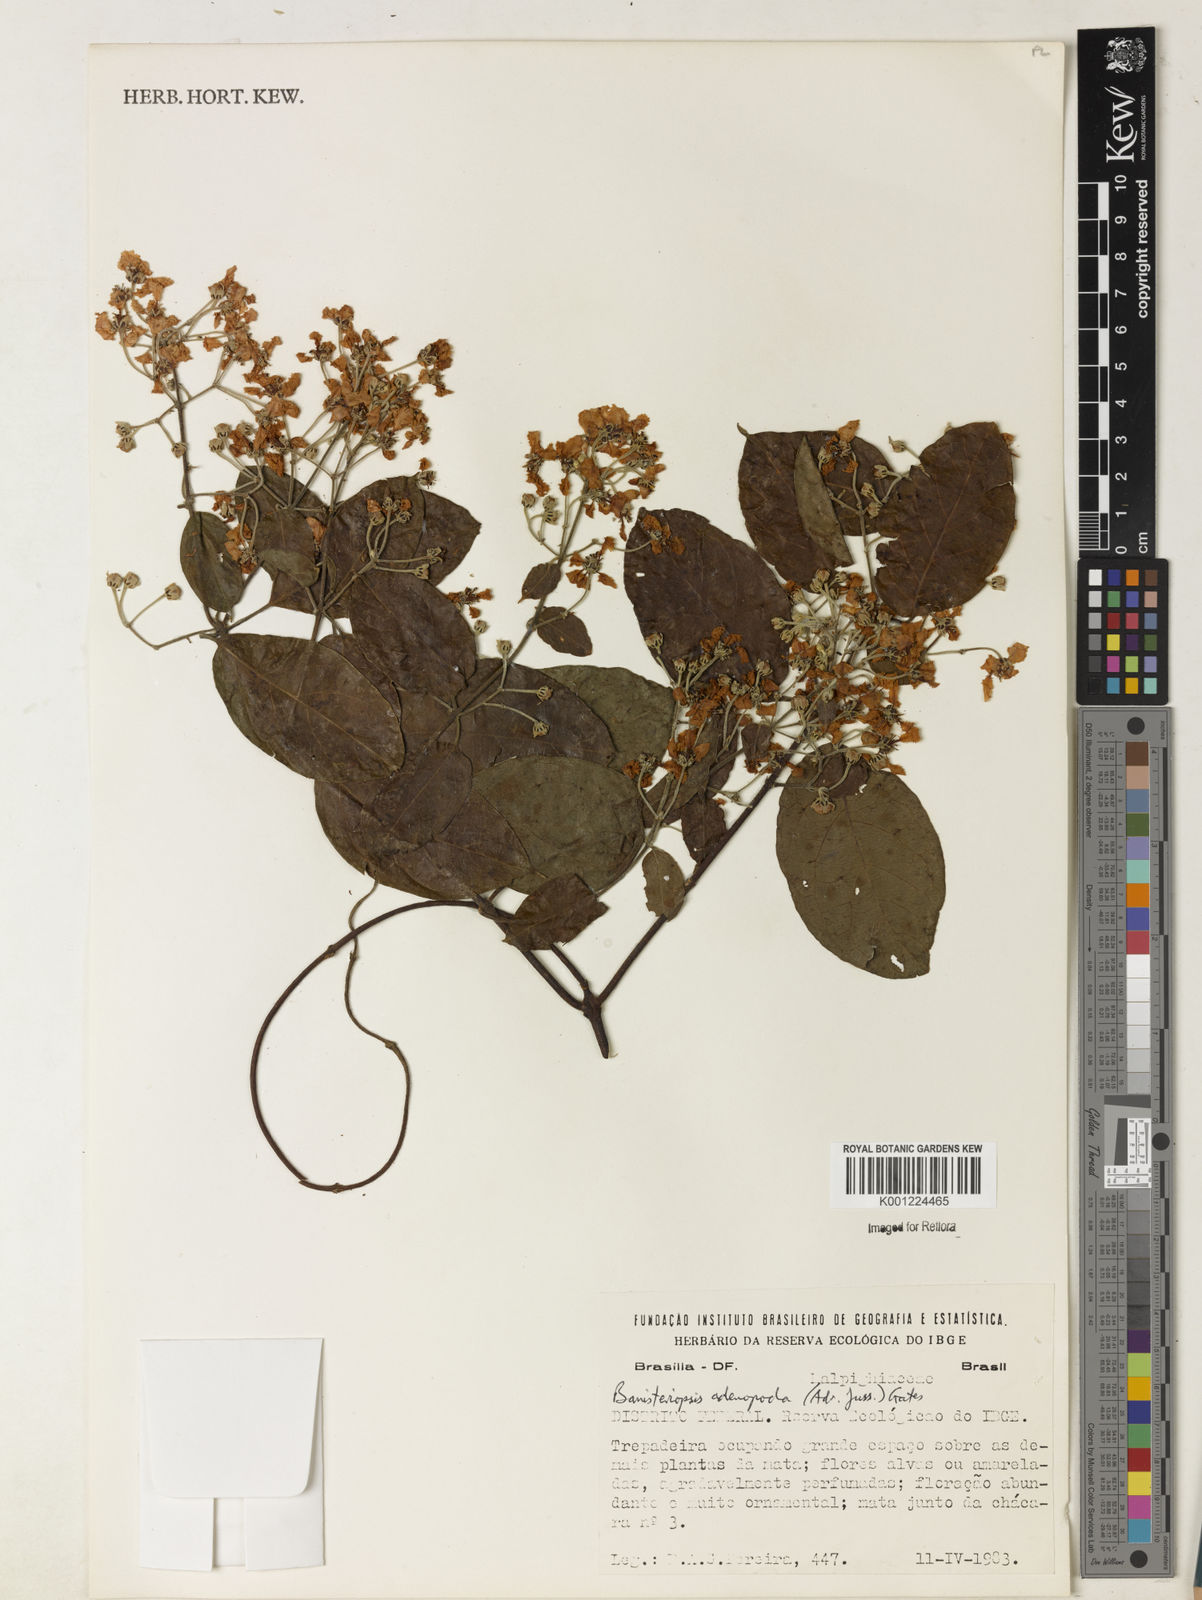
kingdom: Plantae
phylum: Tracheophyta
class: Magnoliopsida
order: Malpighiales
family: Malpighiaceae
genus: Banisteriopsis
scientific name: Banisteriopsis adenopoda
